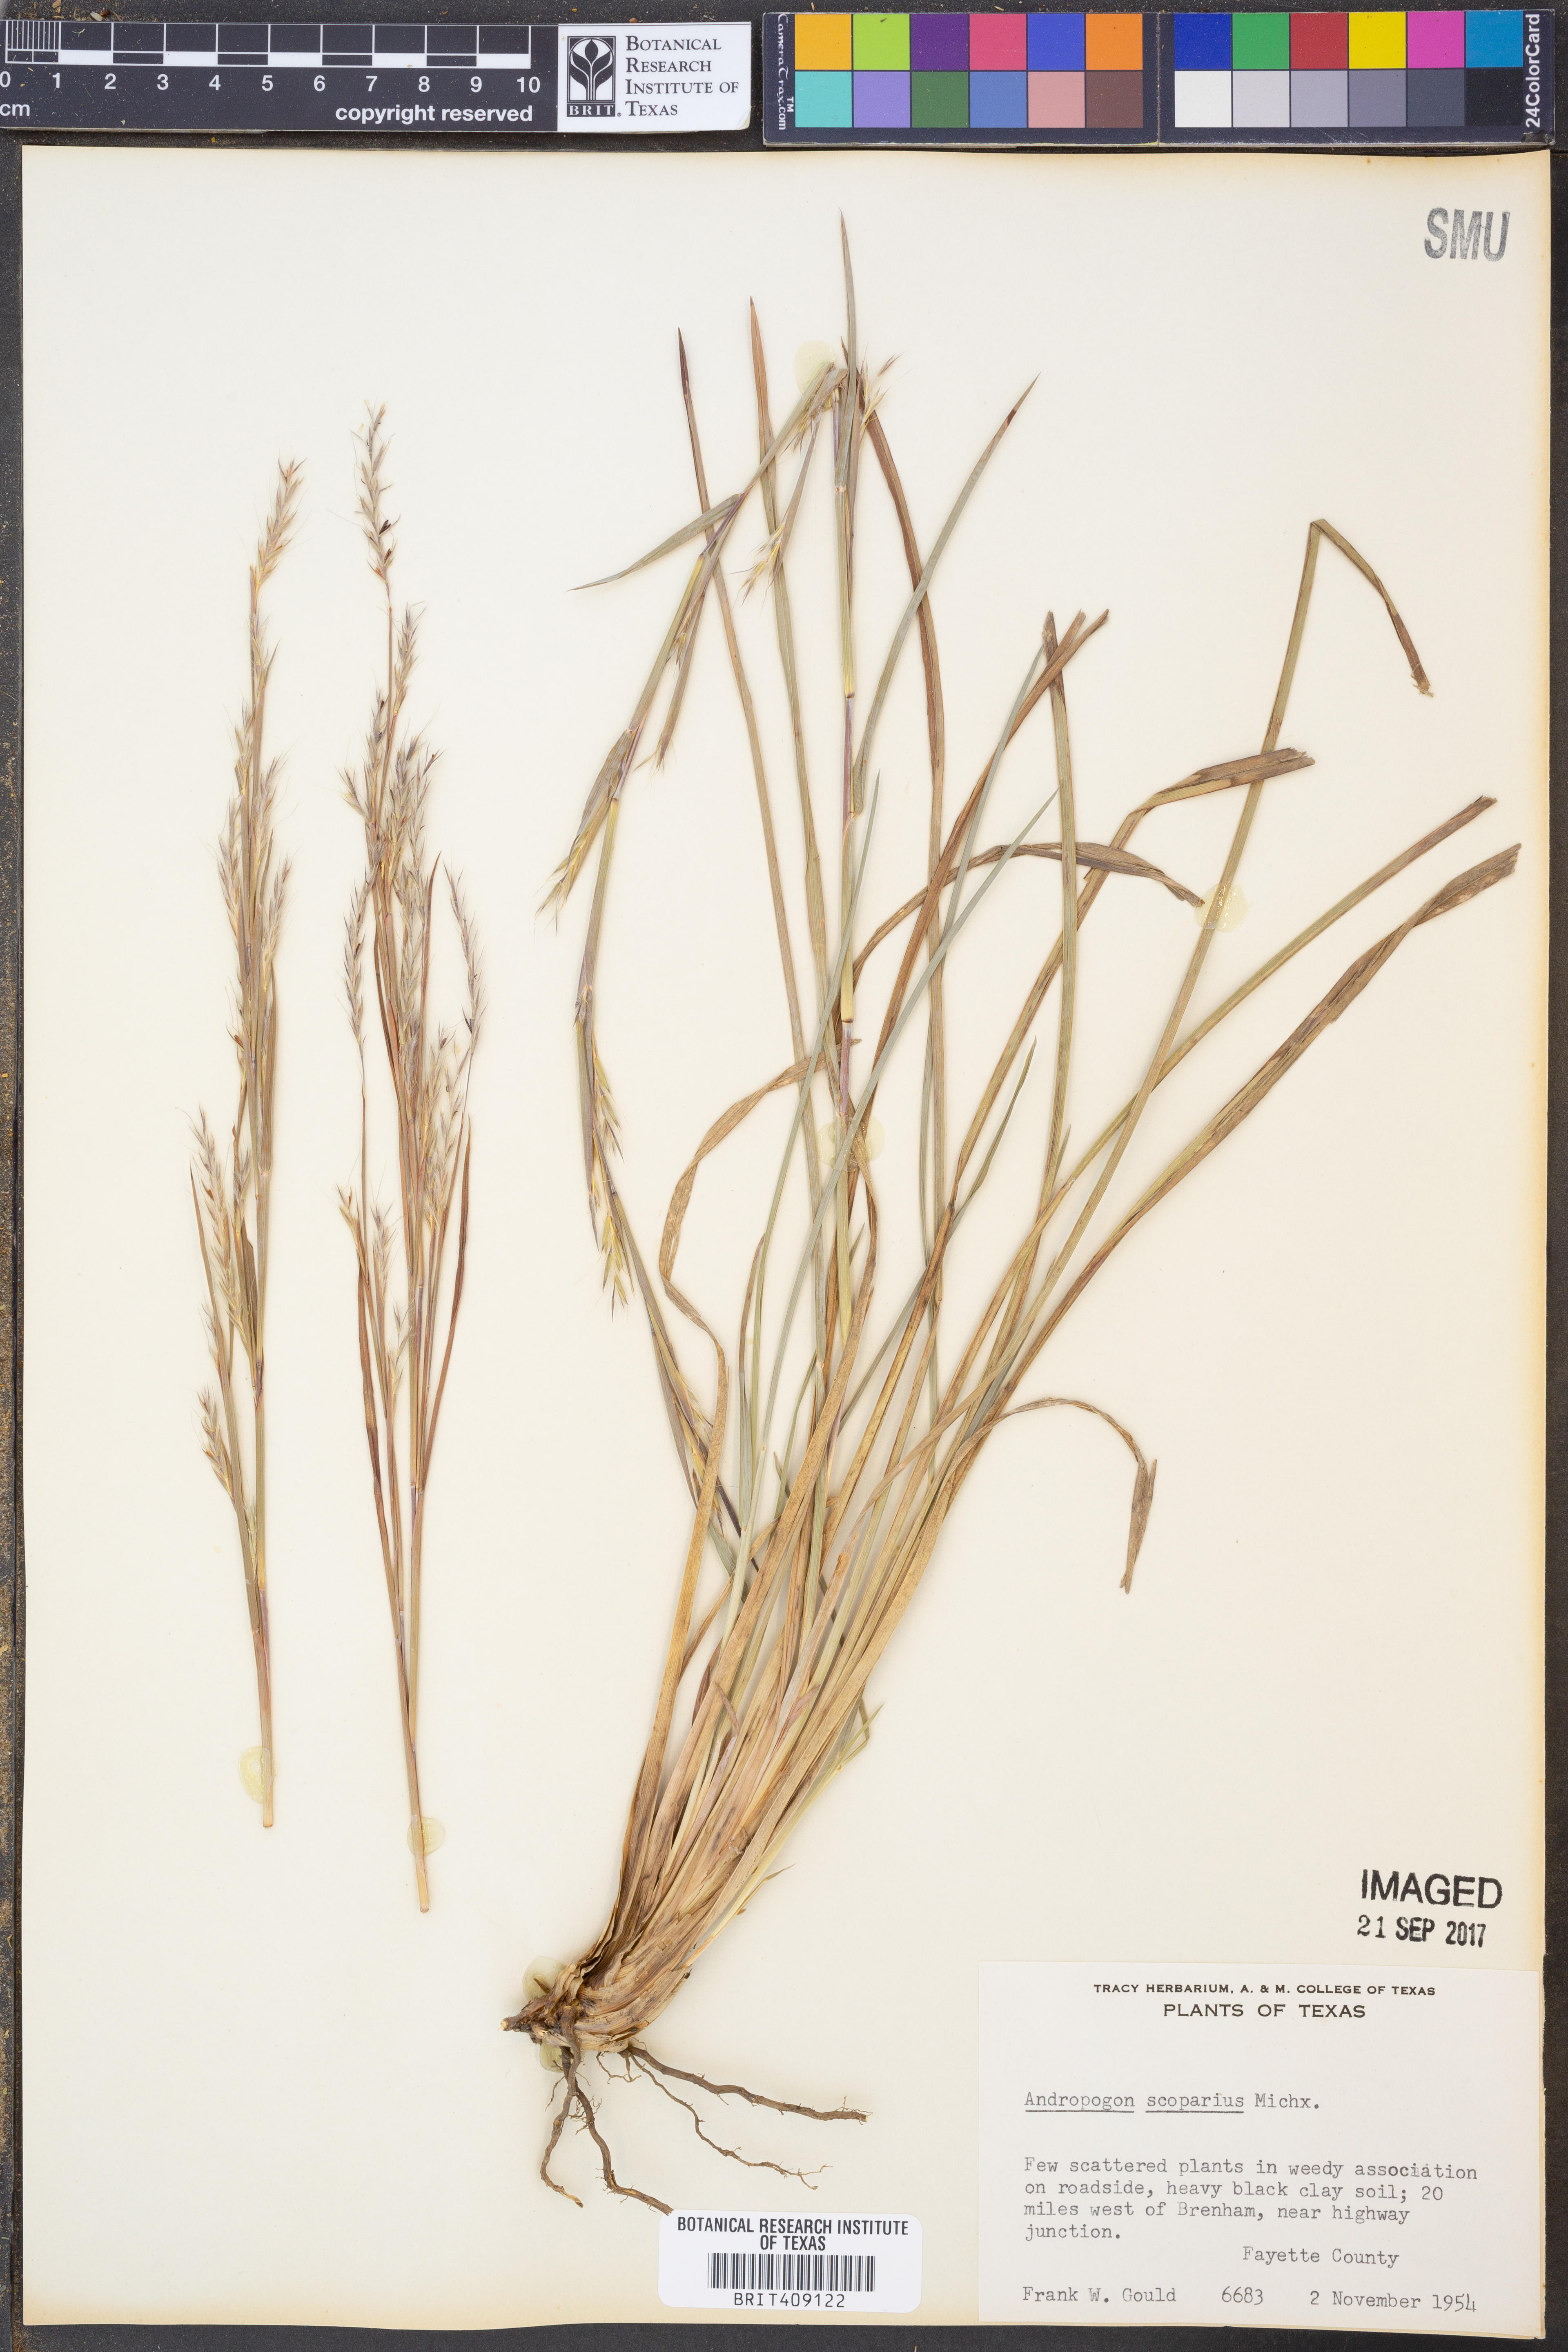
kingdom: Plantae
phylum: Tracheophyta
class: Liliopsida
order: Poales
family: Poaceae
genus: Schizachyrium
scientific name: Schizachyrium scoparium
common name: Little bluestem
